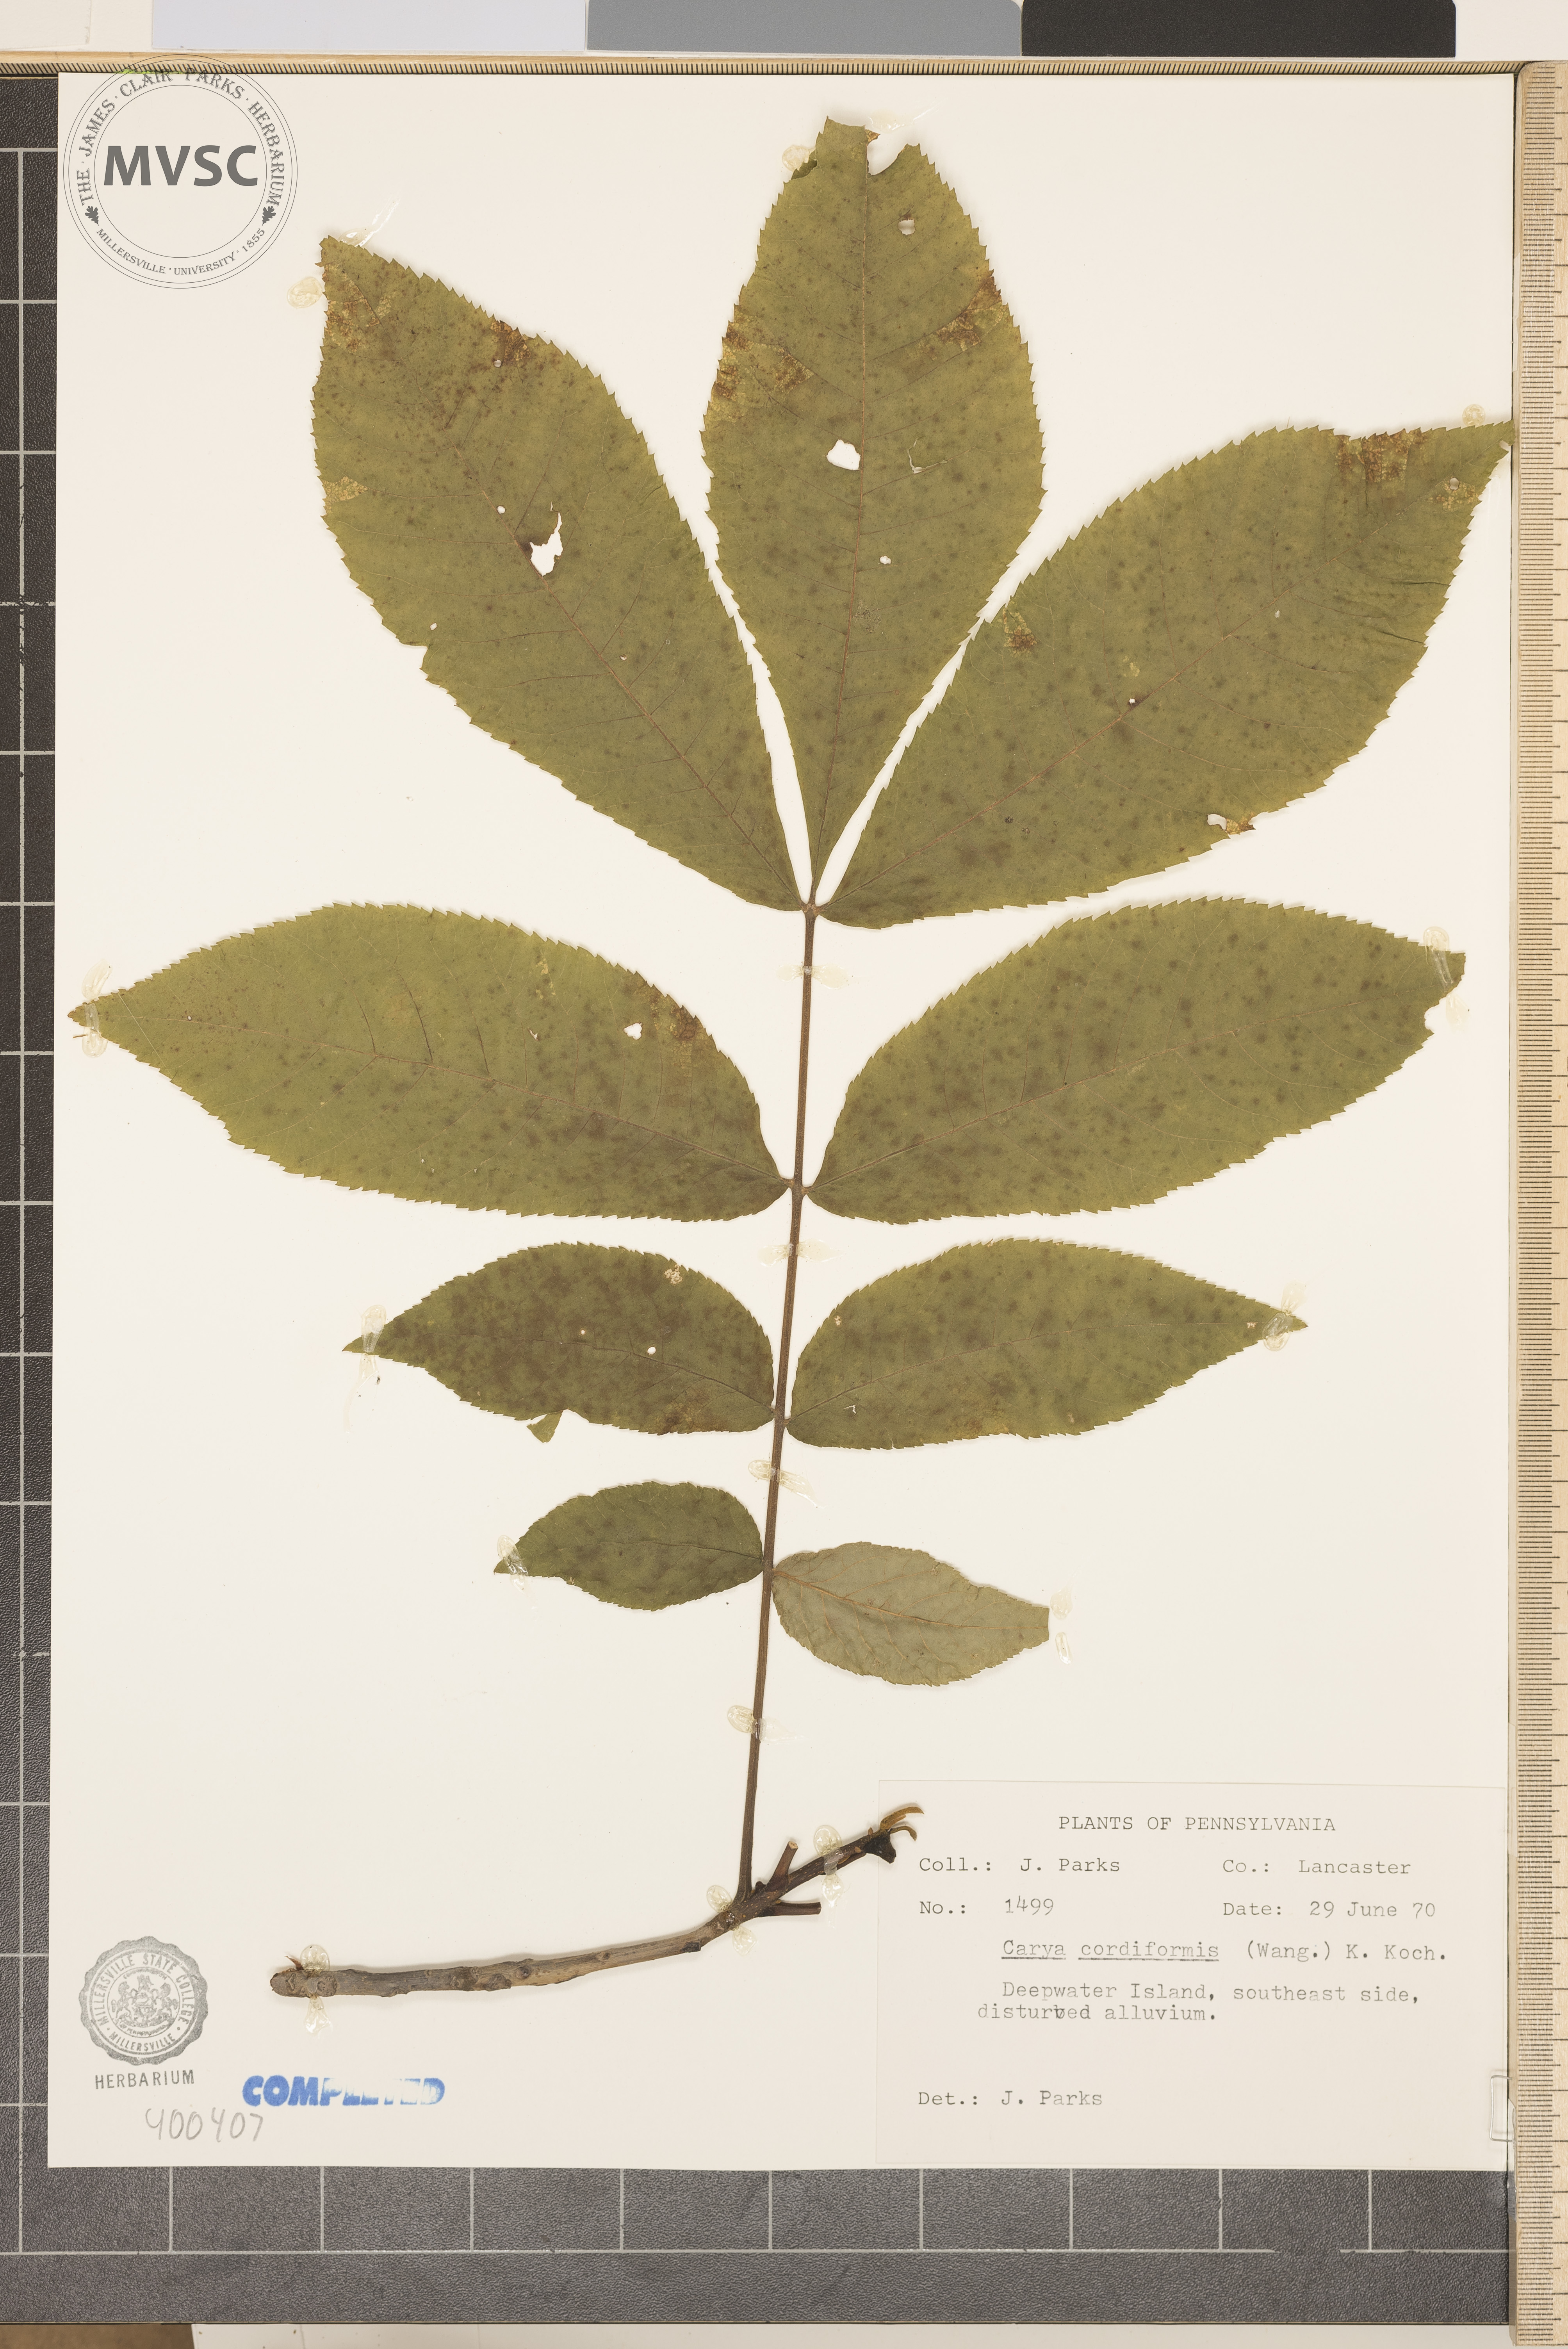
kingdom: Plantae
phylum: Tracheophyta
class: Magnoliopsida
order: Fagales
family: Juglandaceae
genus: Carya
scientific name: Carya cordiformis
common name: bitternut hickory
